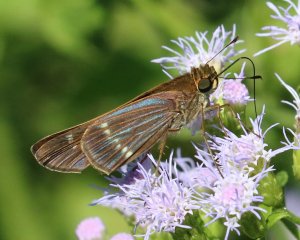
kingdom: Animalia
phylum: Arthropoda
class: Insecta
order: Lepidoptera
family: Hesperiidae
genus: Turesis
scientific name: Turesis lucas
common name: Purple-washed Skipper
